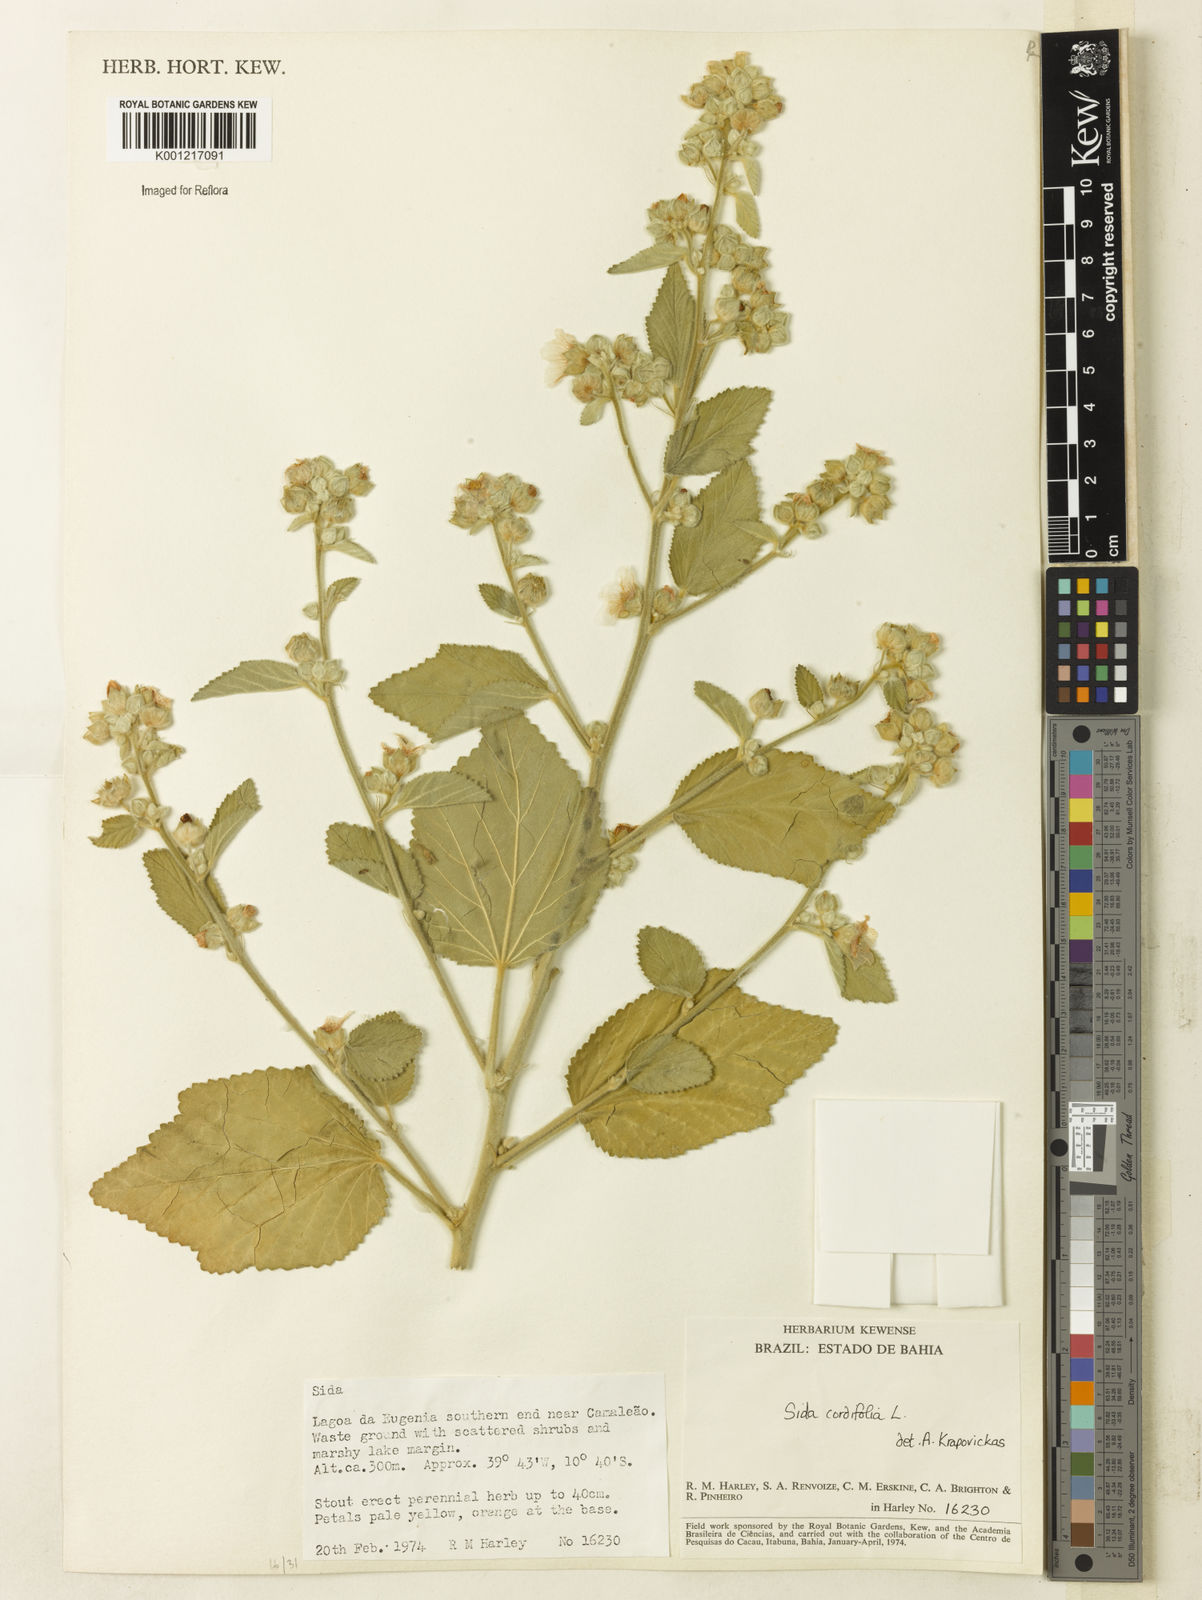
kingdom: Plantae
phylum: Tracheophyta
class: Magnoliopsida
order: Malvales
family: Malvaceae
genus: Sida
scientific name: Sida cordifolia
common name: Ilima
